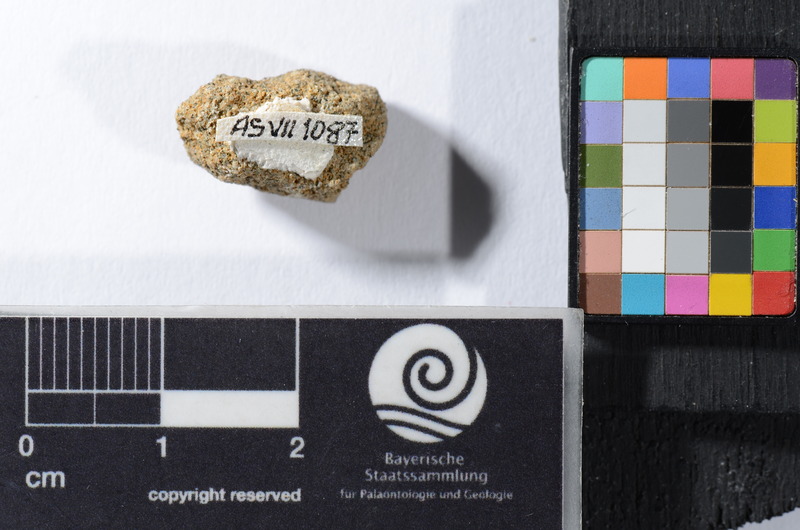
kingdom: Animalia
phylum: Chordata
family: Pycnodontidae
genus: Anomoeodus
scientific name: Anomoeodus
